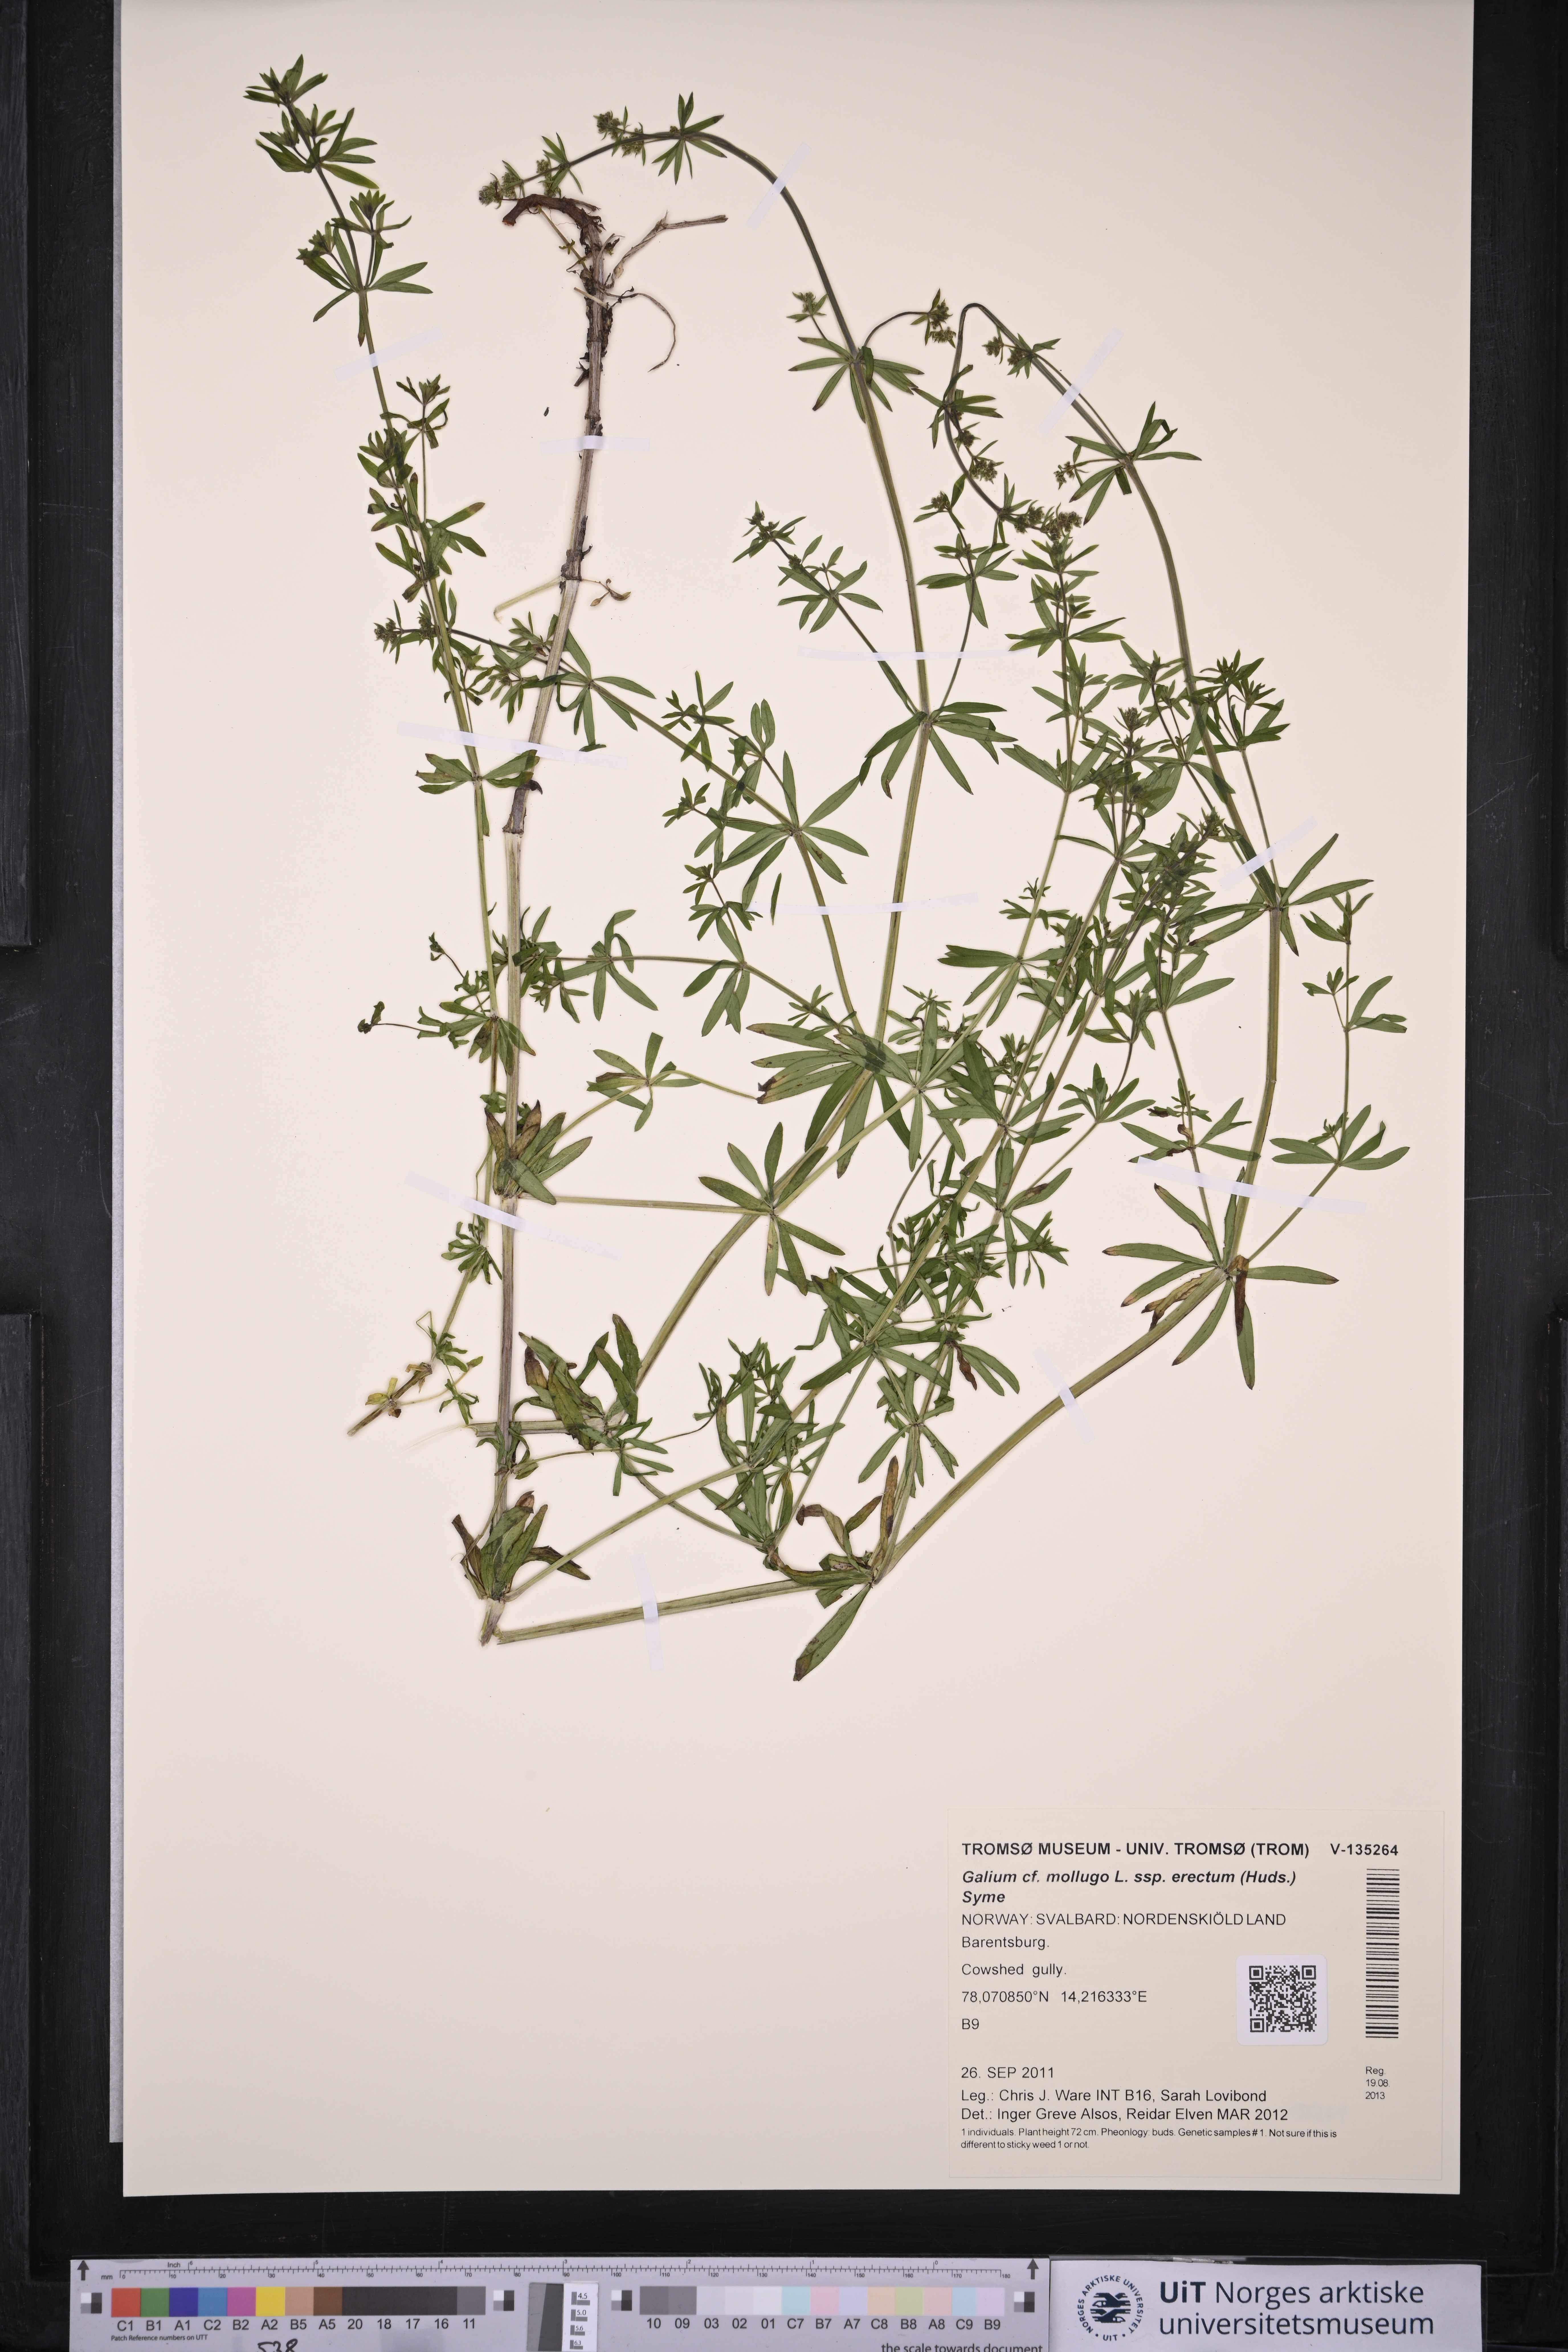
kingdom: Plantae
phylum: Tracheophyta
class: Magnoliopsida
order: Gentianales
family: Rubiaceae
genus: Galium
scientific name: Galium album
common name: White bedstraw
